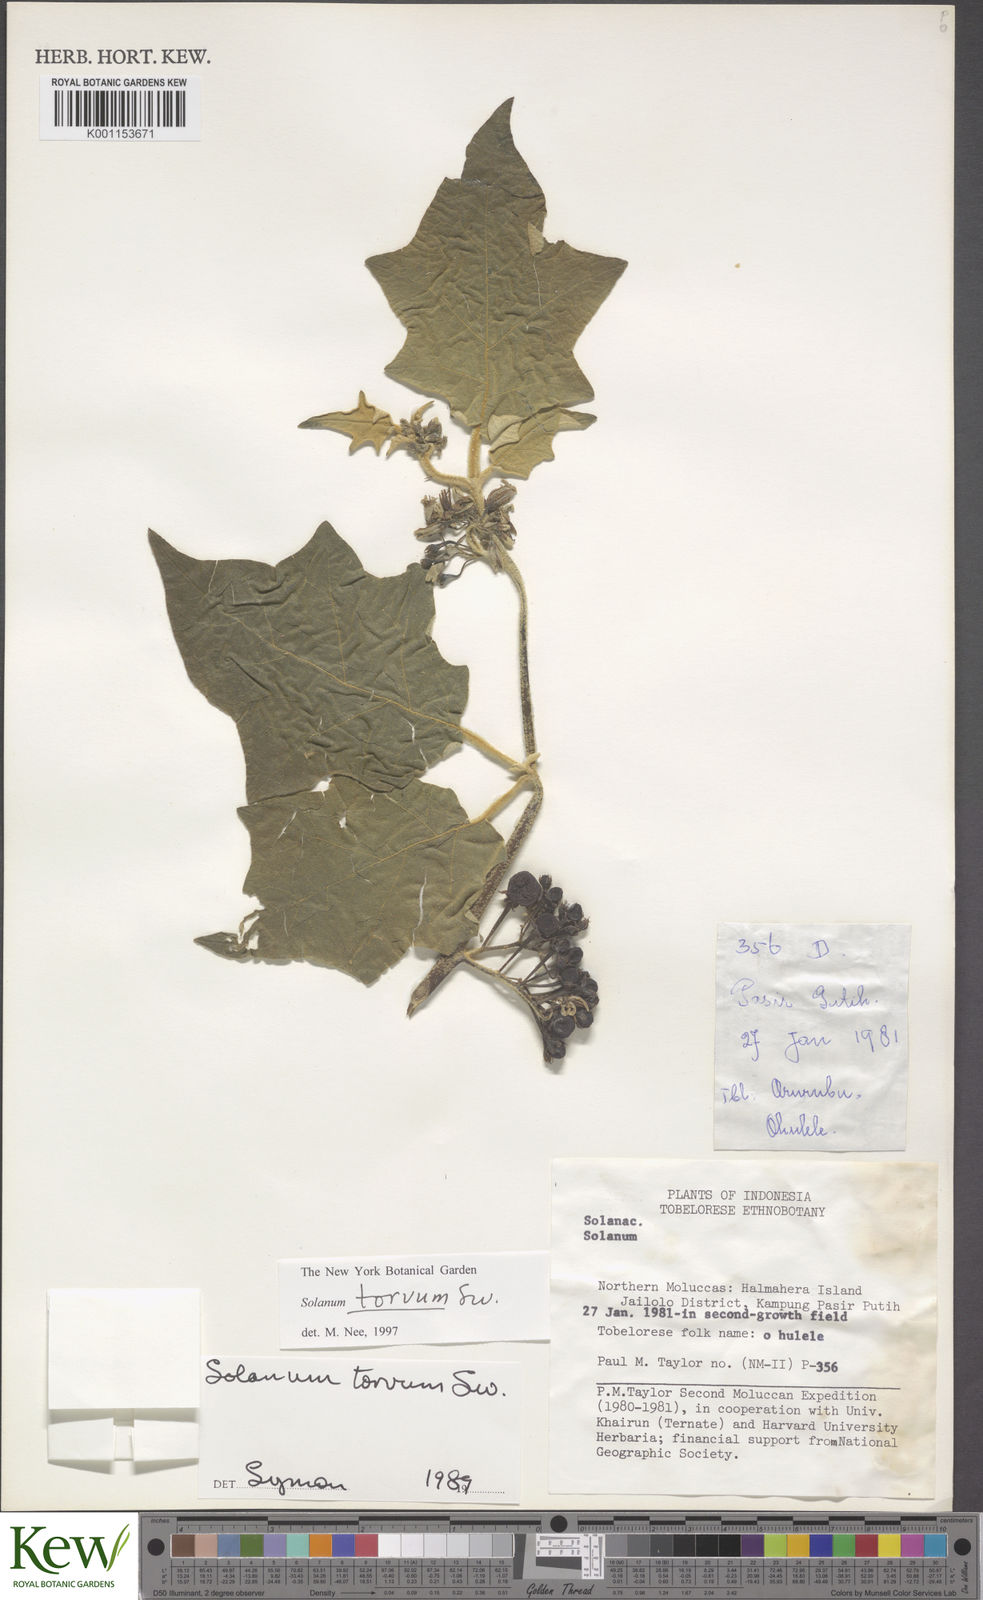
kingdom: Plantae
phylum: Tracheophyta
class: Magnoliopsida
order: Solanales
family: Solanaceae
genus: Solanum
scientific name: Solanum torvum
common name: Turkey berry
